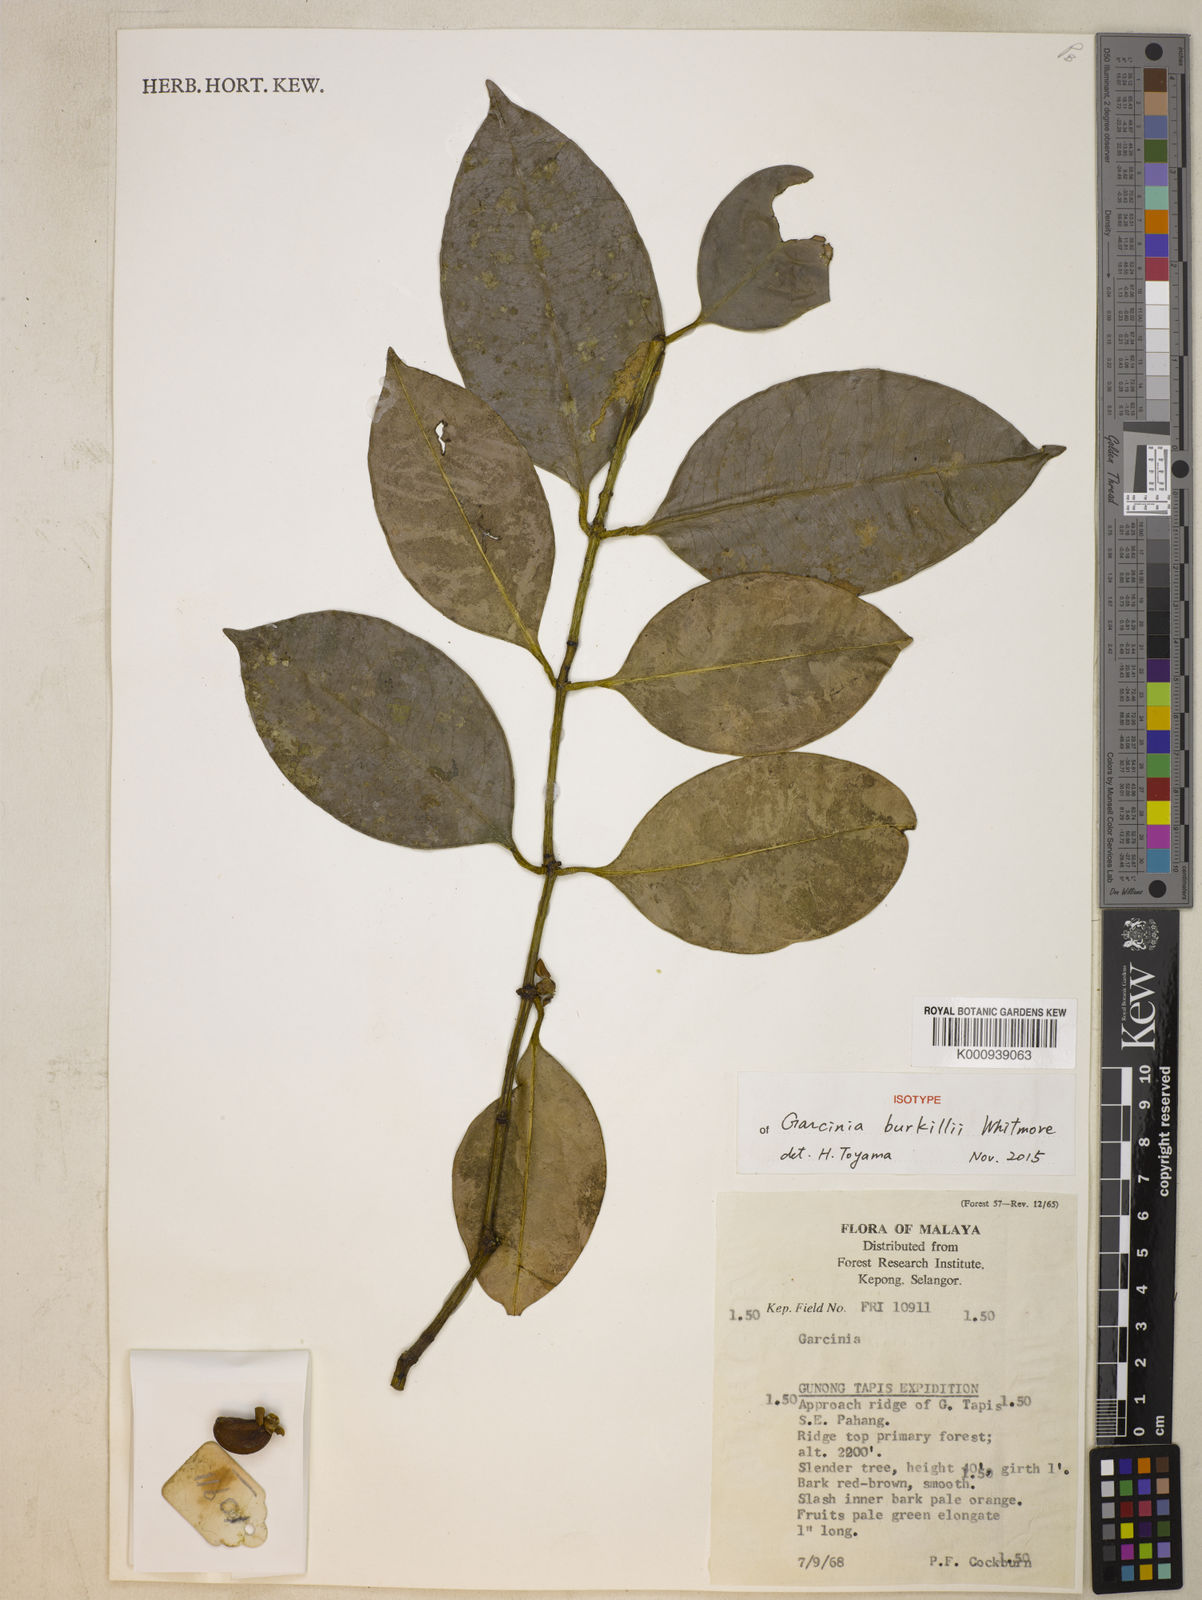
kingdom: Plantae
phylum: Tracheophyta
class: Magnoliopsida
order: Malpighiales
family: Clusiaceae
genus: Garcinia
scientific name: Garcinia burkillii
